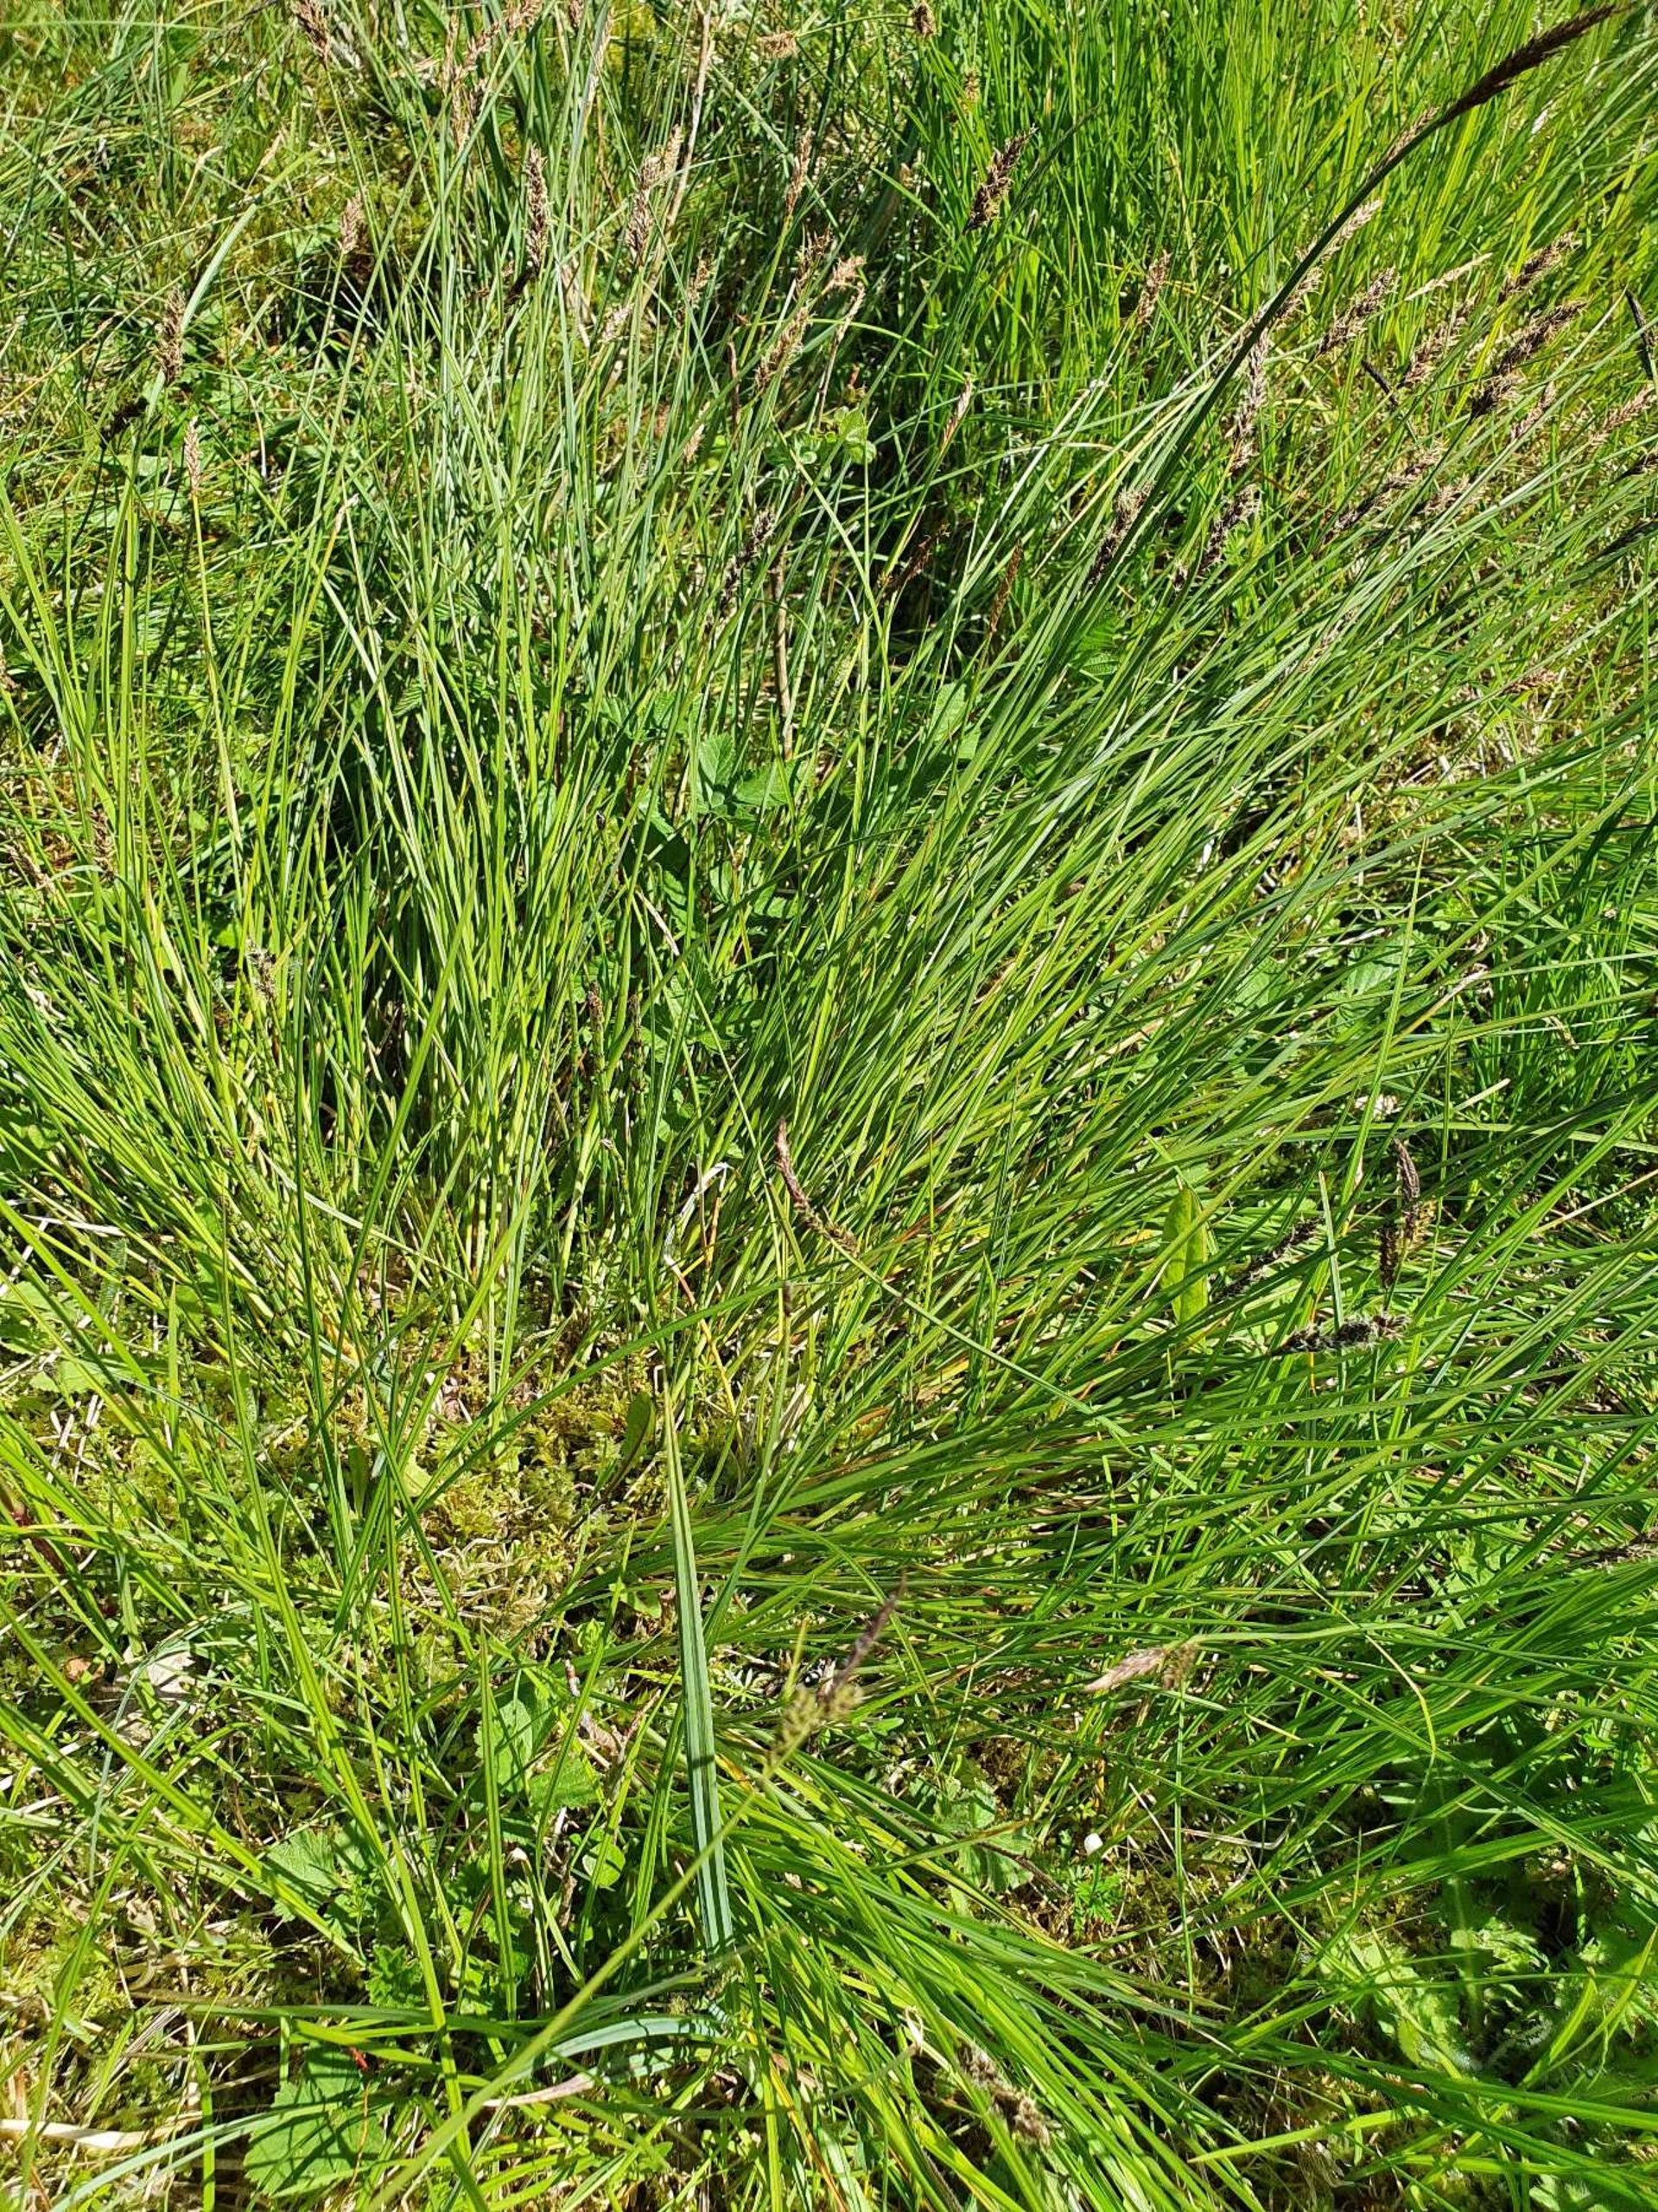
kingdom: Plantae
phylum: Tracheophyta
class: Liliopsida
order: Poales
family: Cyperaceae
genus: Carex
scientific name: Carex appropinquata
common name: Langakset star
